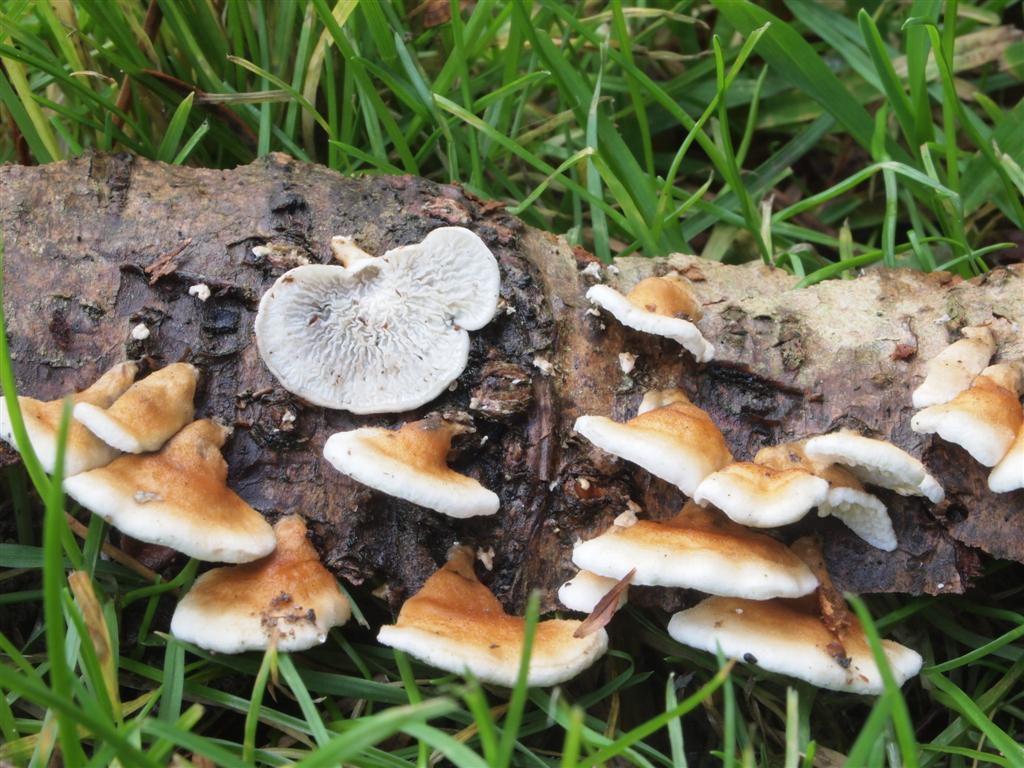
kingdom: Fungi
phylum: Basidiomycota
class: Agaricomycetes
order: Amylocorticiales
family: Amylocorticiaceae
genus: Plicaturopsis
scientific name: Plicaturopsis crispa
